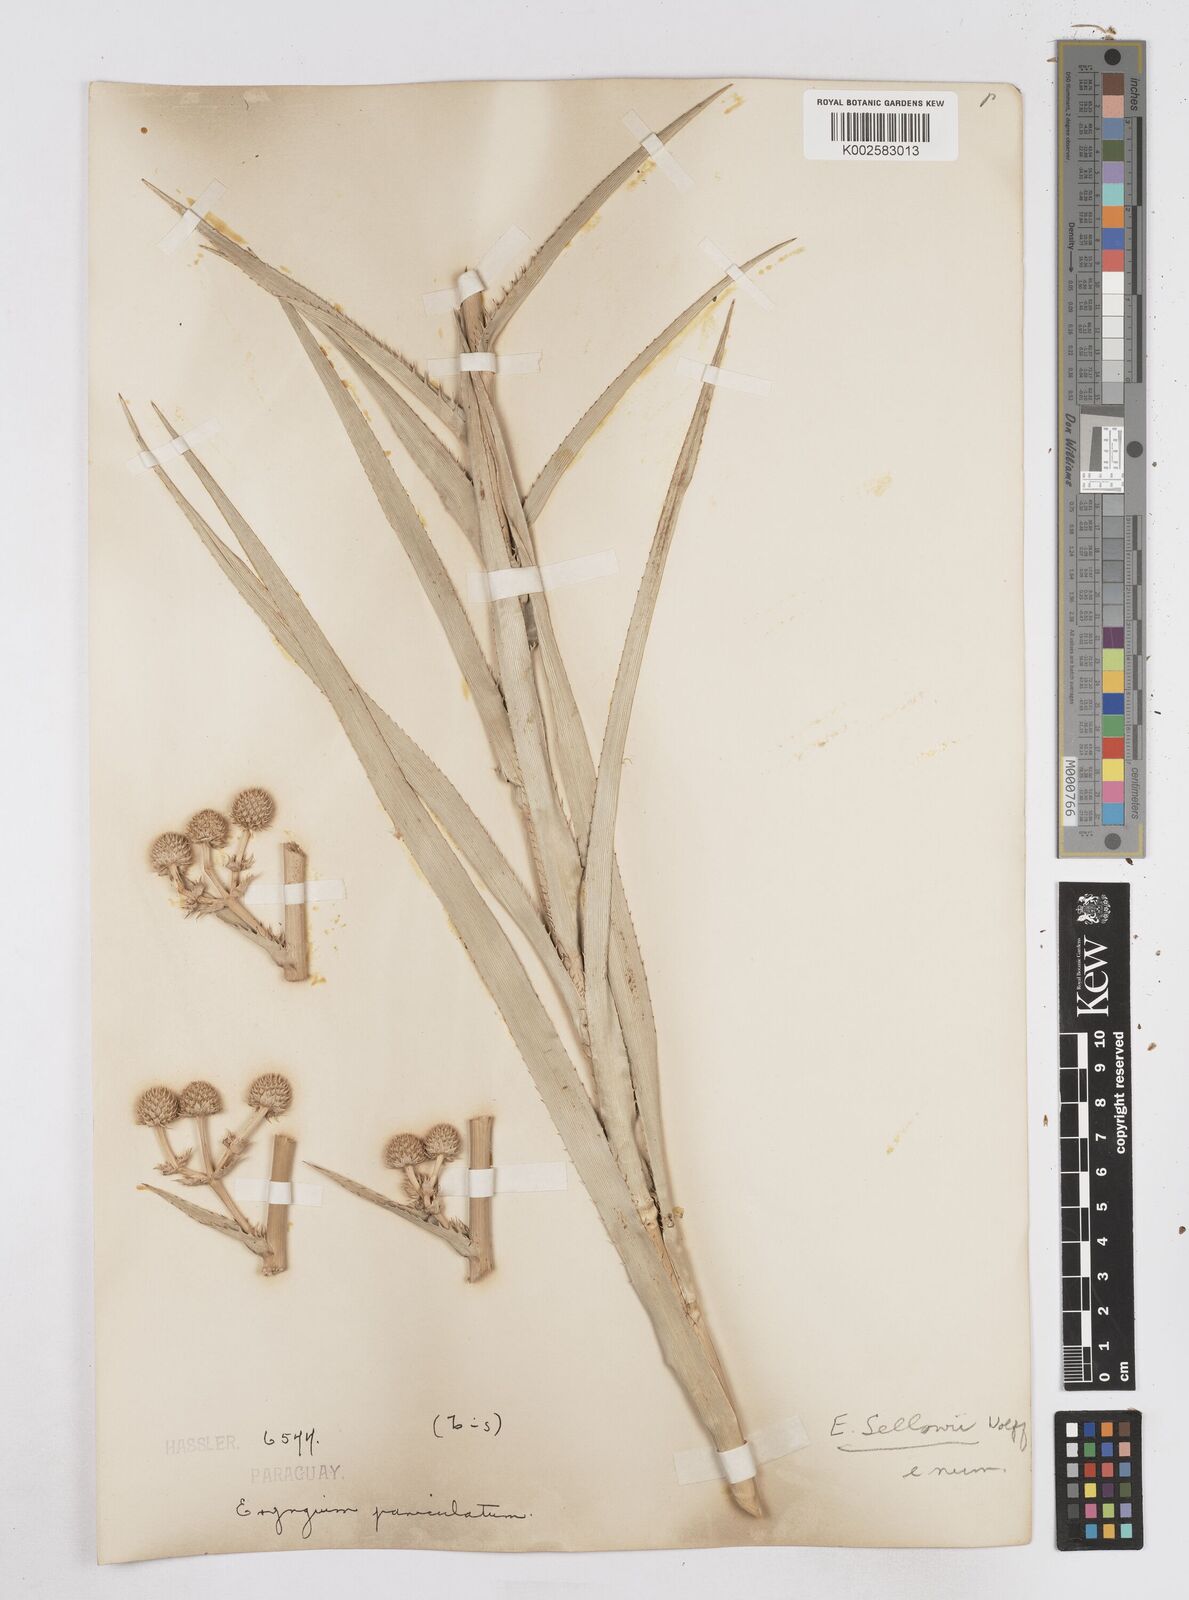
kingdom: Plantae
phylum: Tracheophyta
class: Magnoliopsida
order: Apiales
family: Apiaceae
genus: Eryngium
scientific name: Eryngium sellowii
